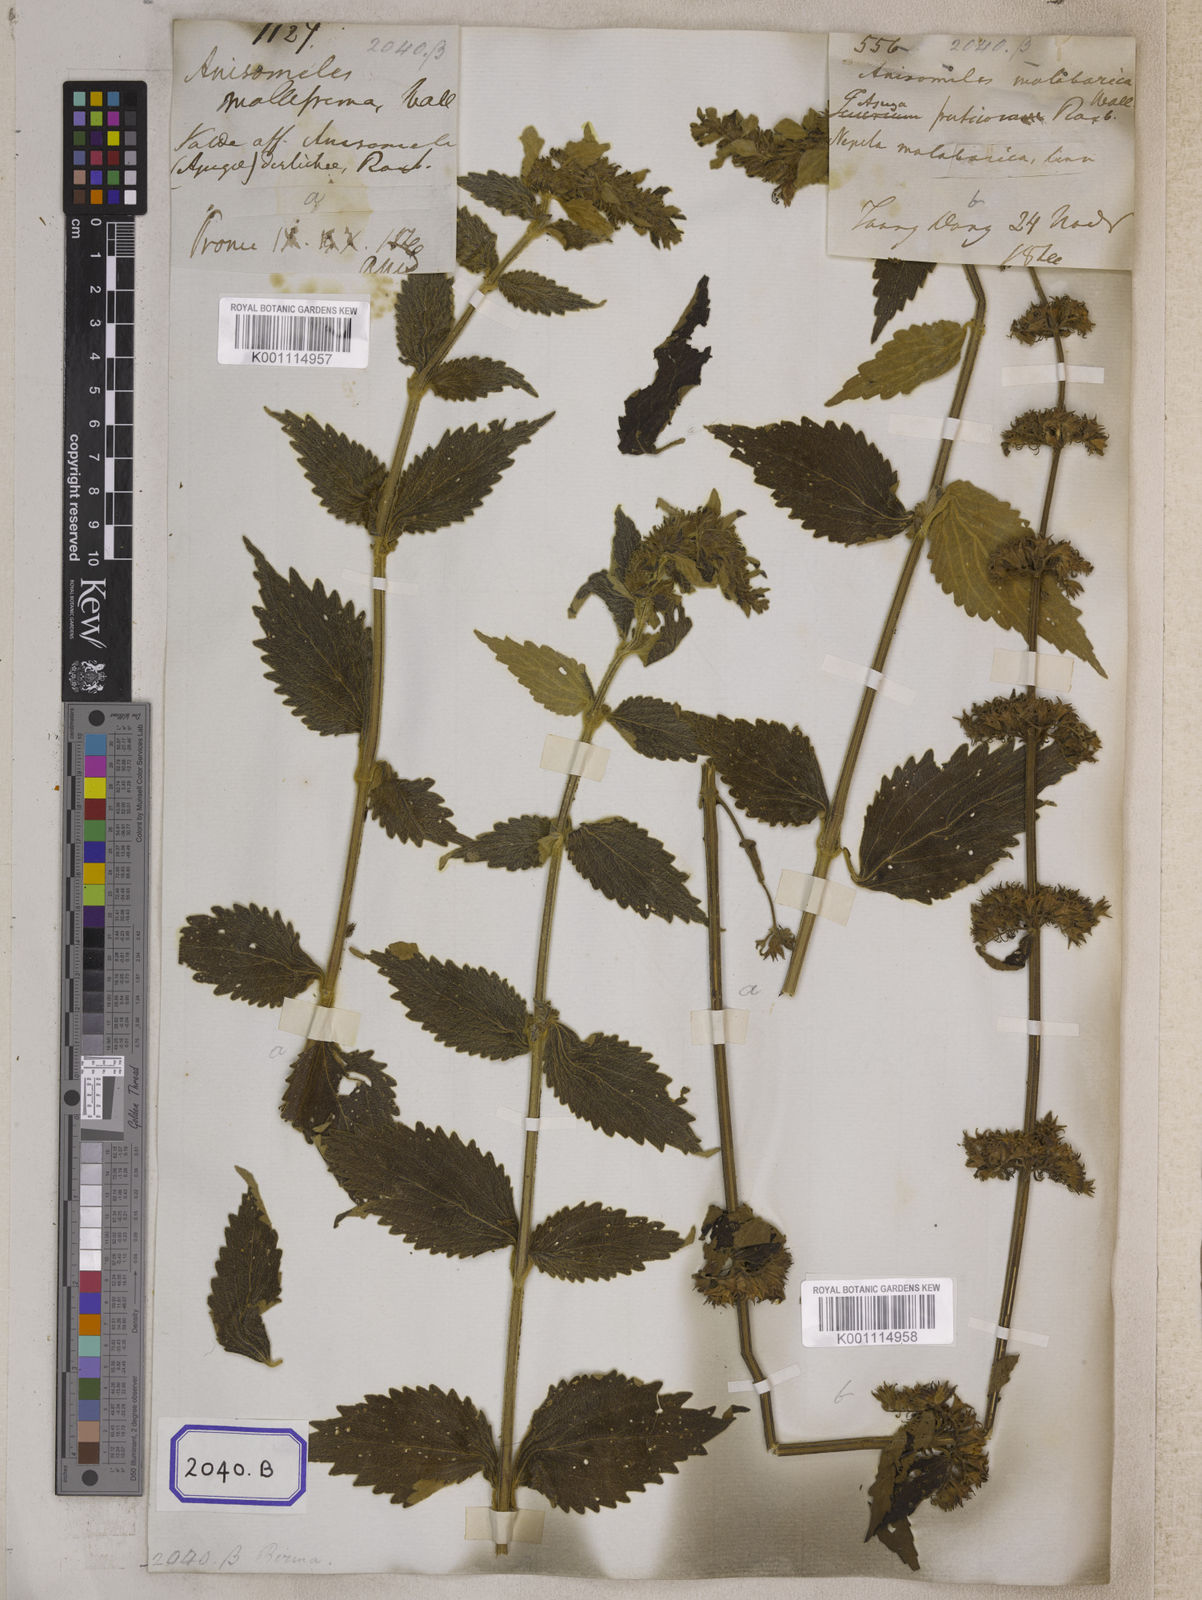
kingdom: Plantae
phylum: Tracheophyta
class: Magnoliopsida
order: Lamiales
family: Lamiaceae
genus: Anisomeles
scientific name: Anisomeles
